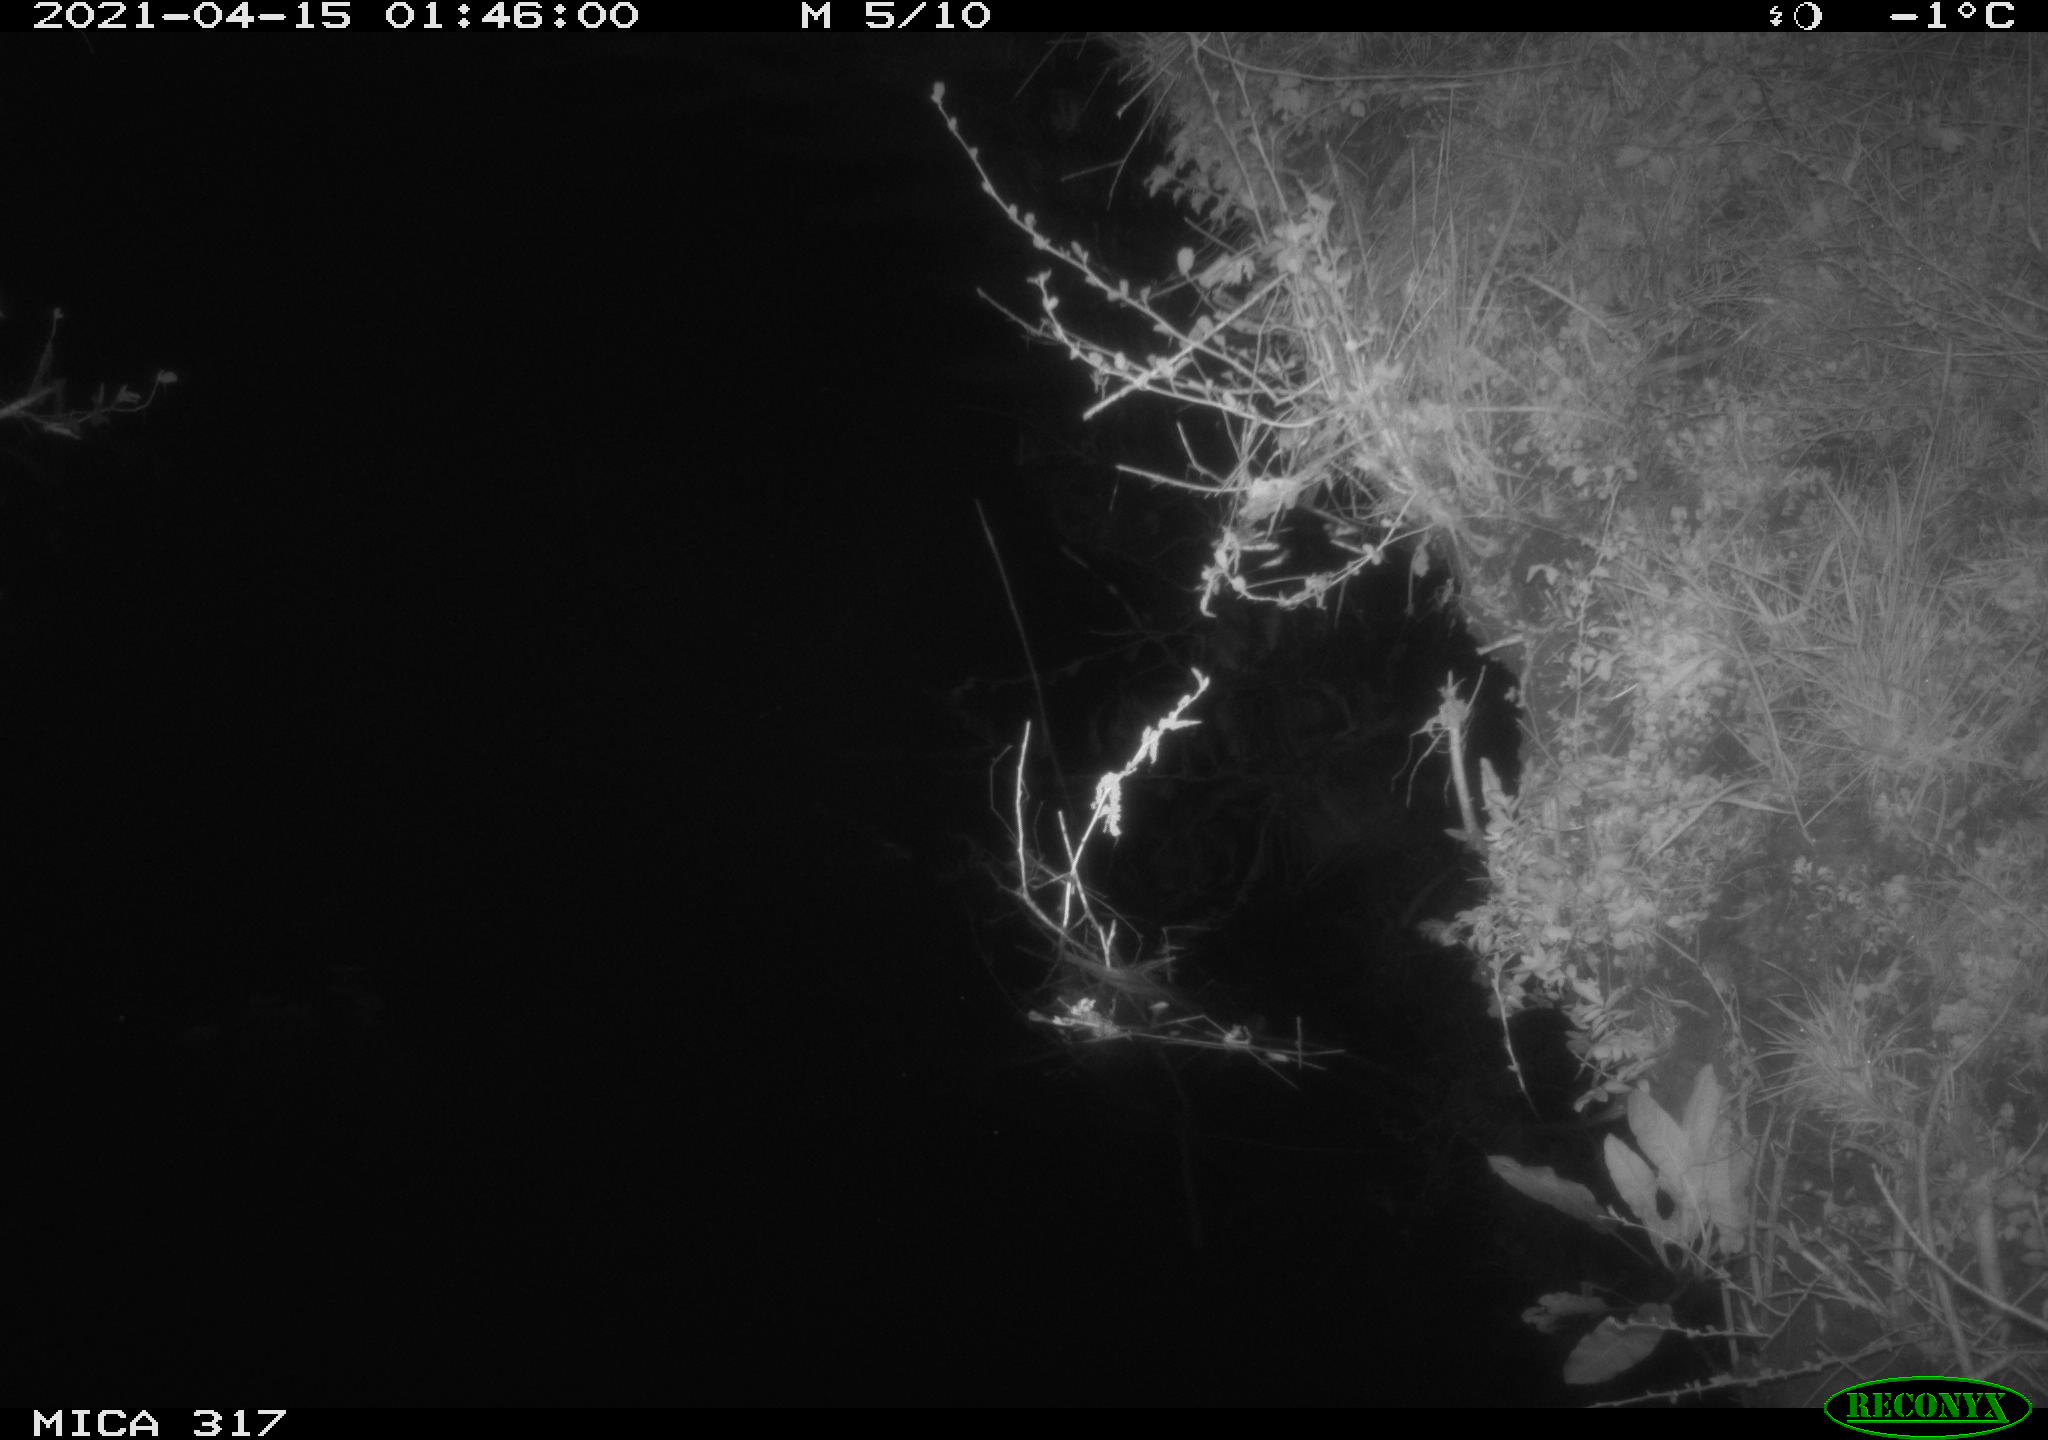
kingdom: Animalia
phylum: Chordata
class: Aves
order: Anseriformes
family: Anatidae
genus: Anas
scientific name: Anas platyrhynchos
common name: Mallard
